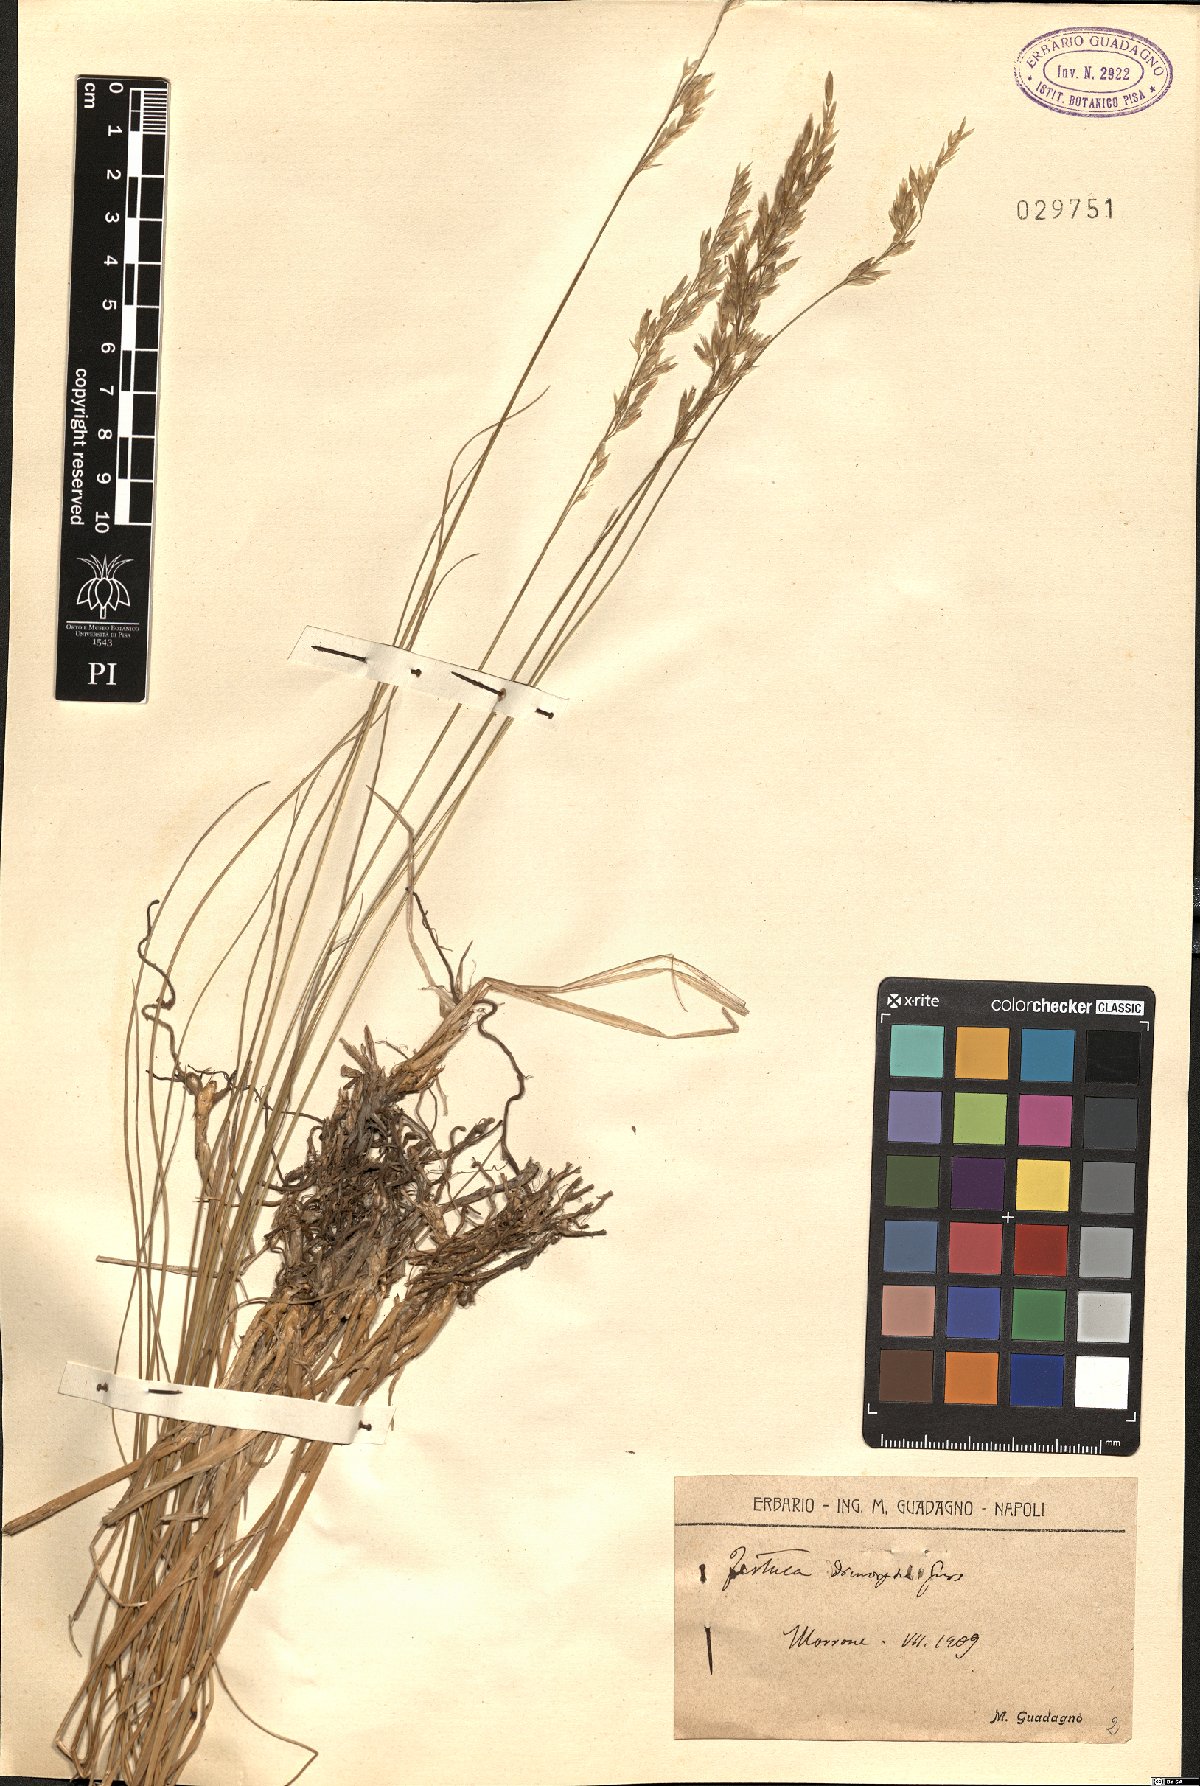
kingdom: Plantae
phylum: Tracheophyta
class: Liliopsida
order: Poales
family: Poaceae
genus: Festuca
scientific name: Festuca dimorpha
